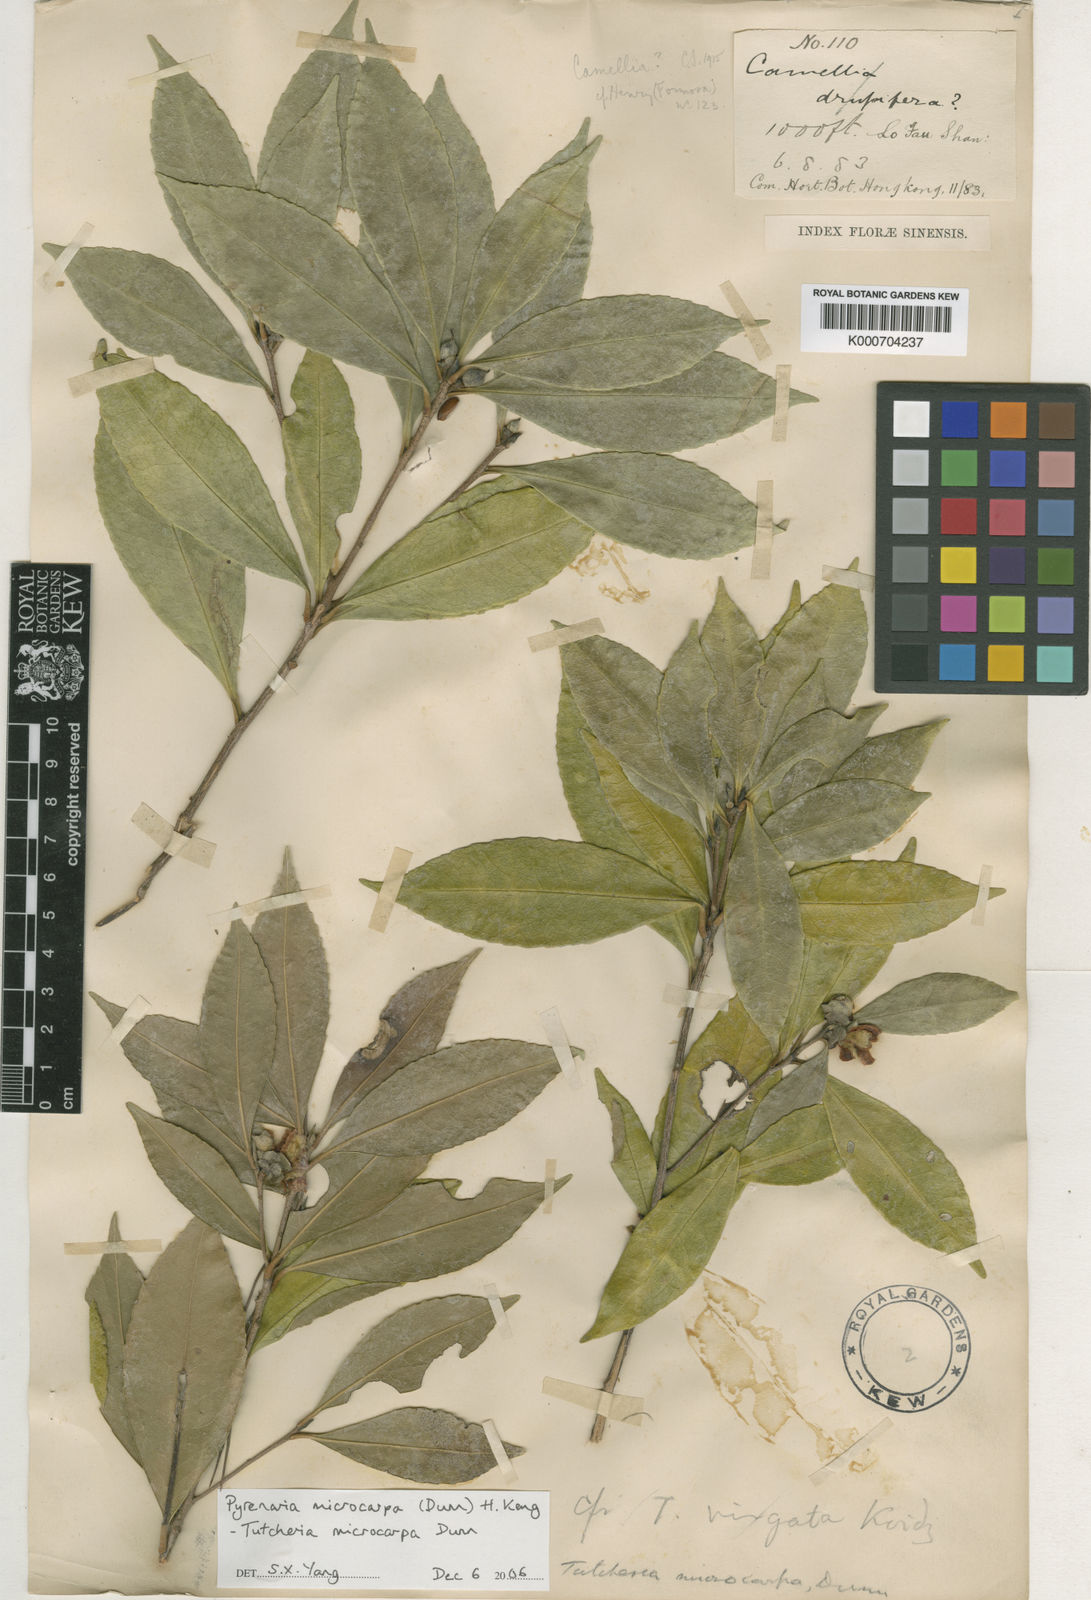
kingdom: Plantae
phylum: Tracheophyta
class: Magnoliopsida
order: Ericales
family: Theaceae
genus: Pyrenaria
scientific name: Pyrenaria microcarpa
